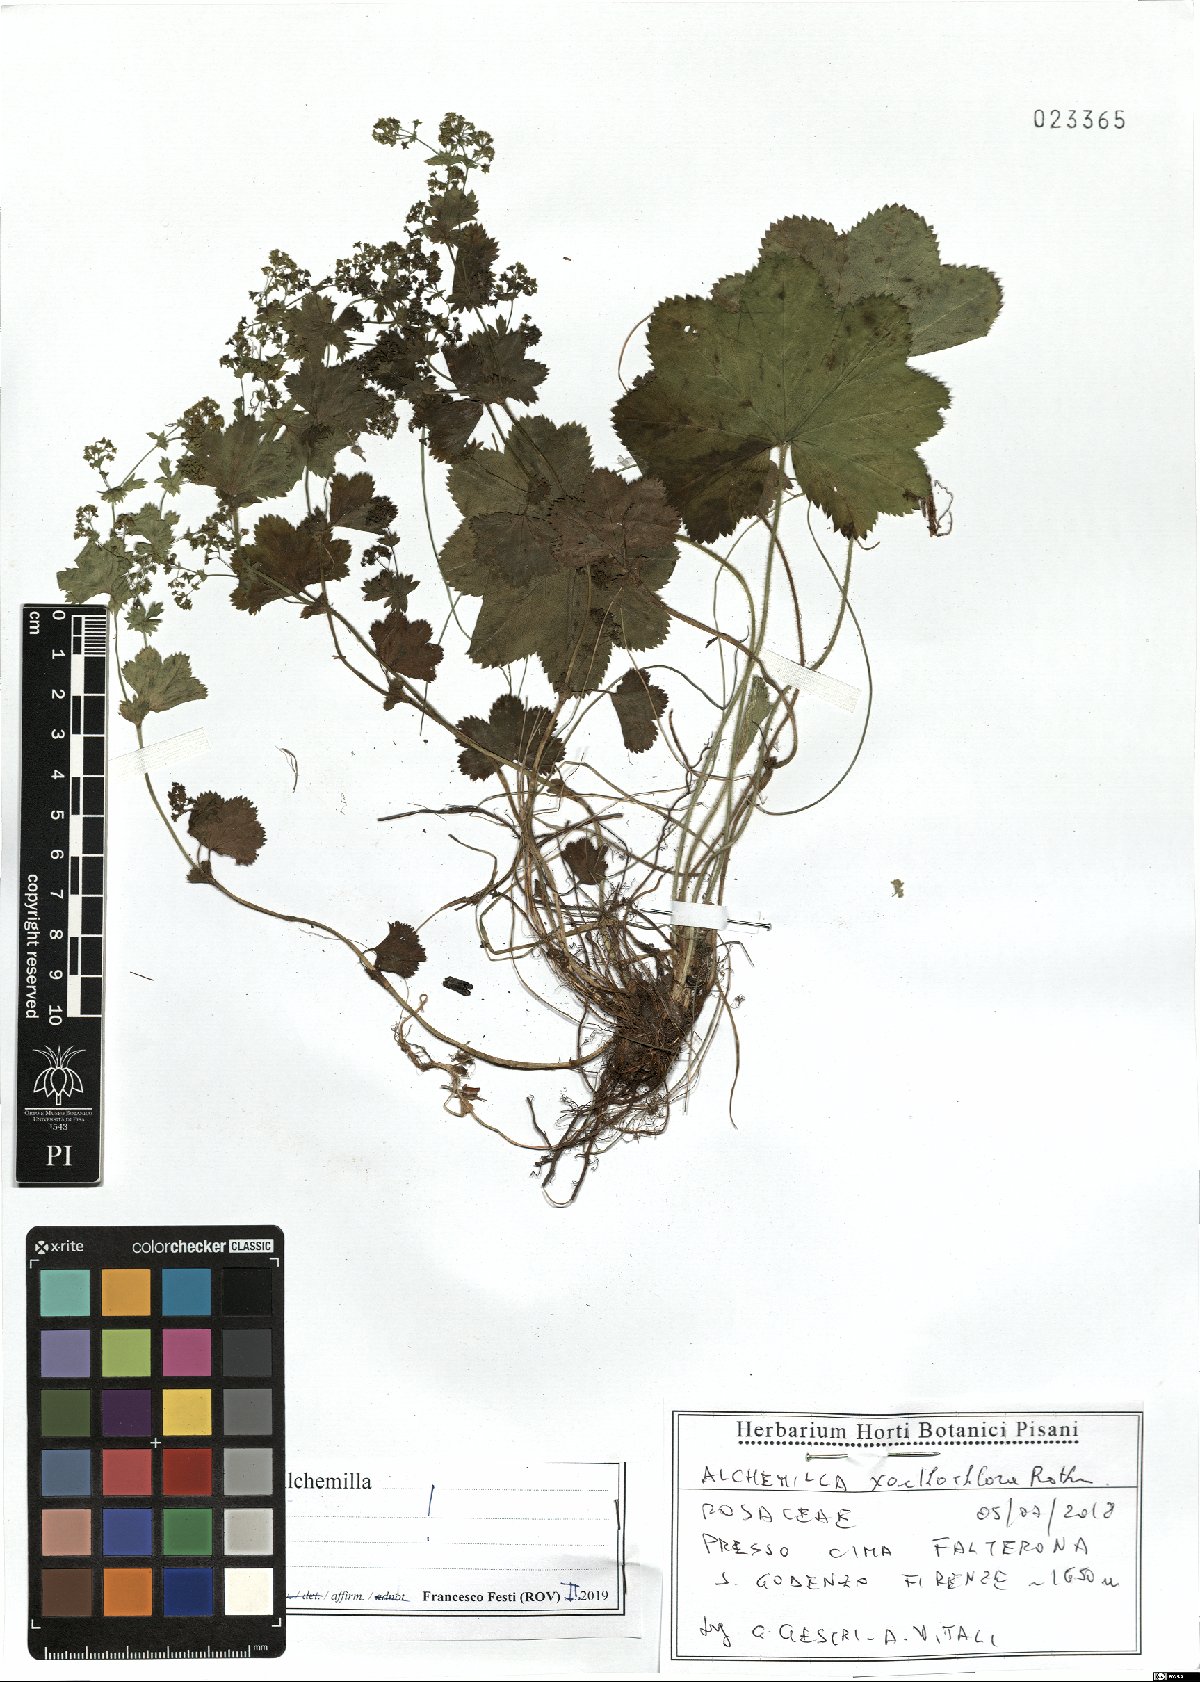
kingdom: Plantae
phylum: Tracheophyta
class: Magnoliopsida
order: Rosales
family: Rosaceae
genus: Alchemilla
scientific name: Alchemilla xanthochlora
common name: Intermediate lady's-mantle
